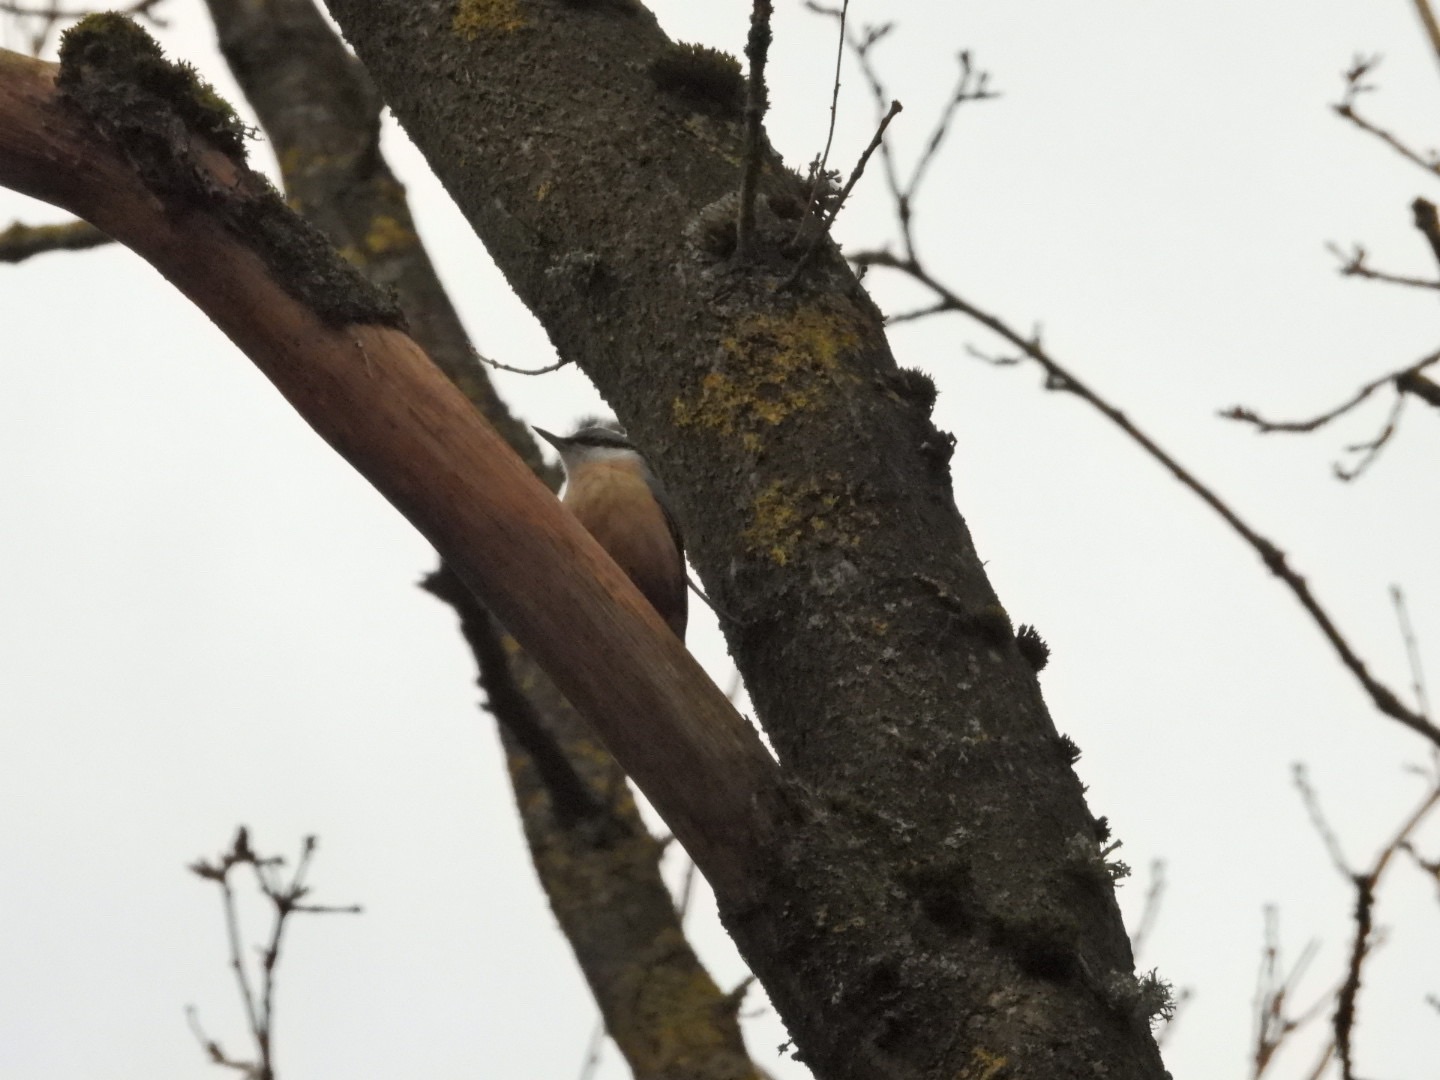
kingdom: Animalia
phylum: Chordata
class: Aves
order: Passeriformes
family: Sittidae
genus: Sitta
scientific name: Sitta europaea
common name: Spætmejse
